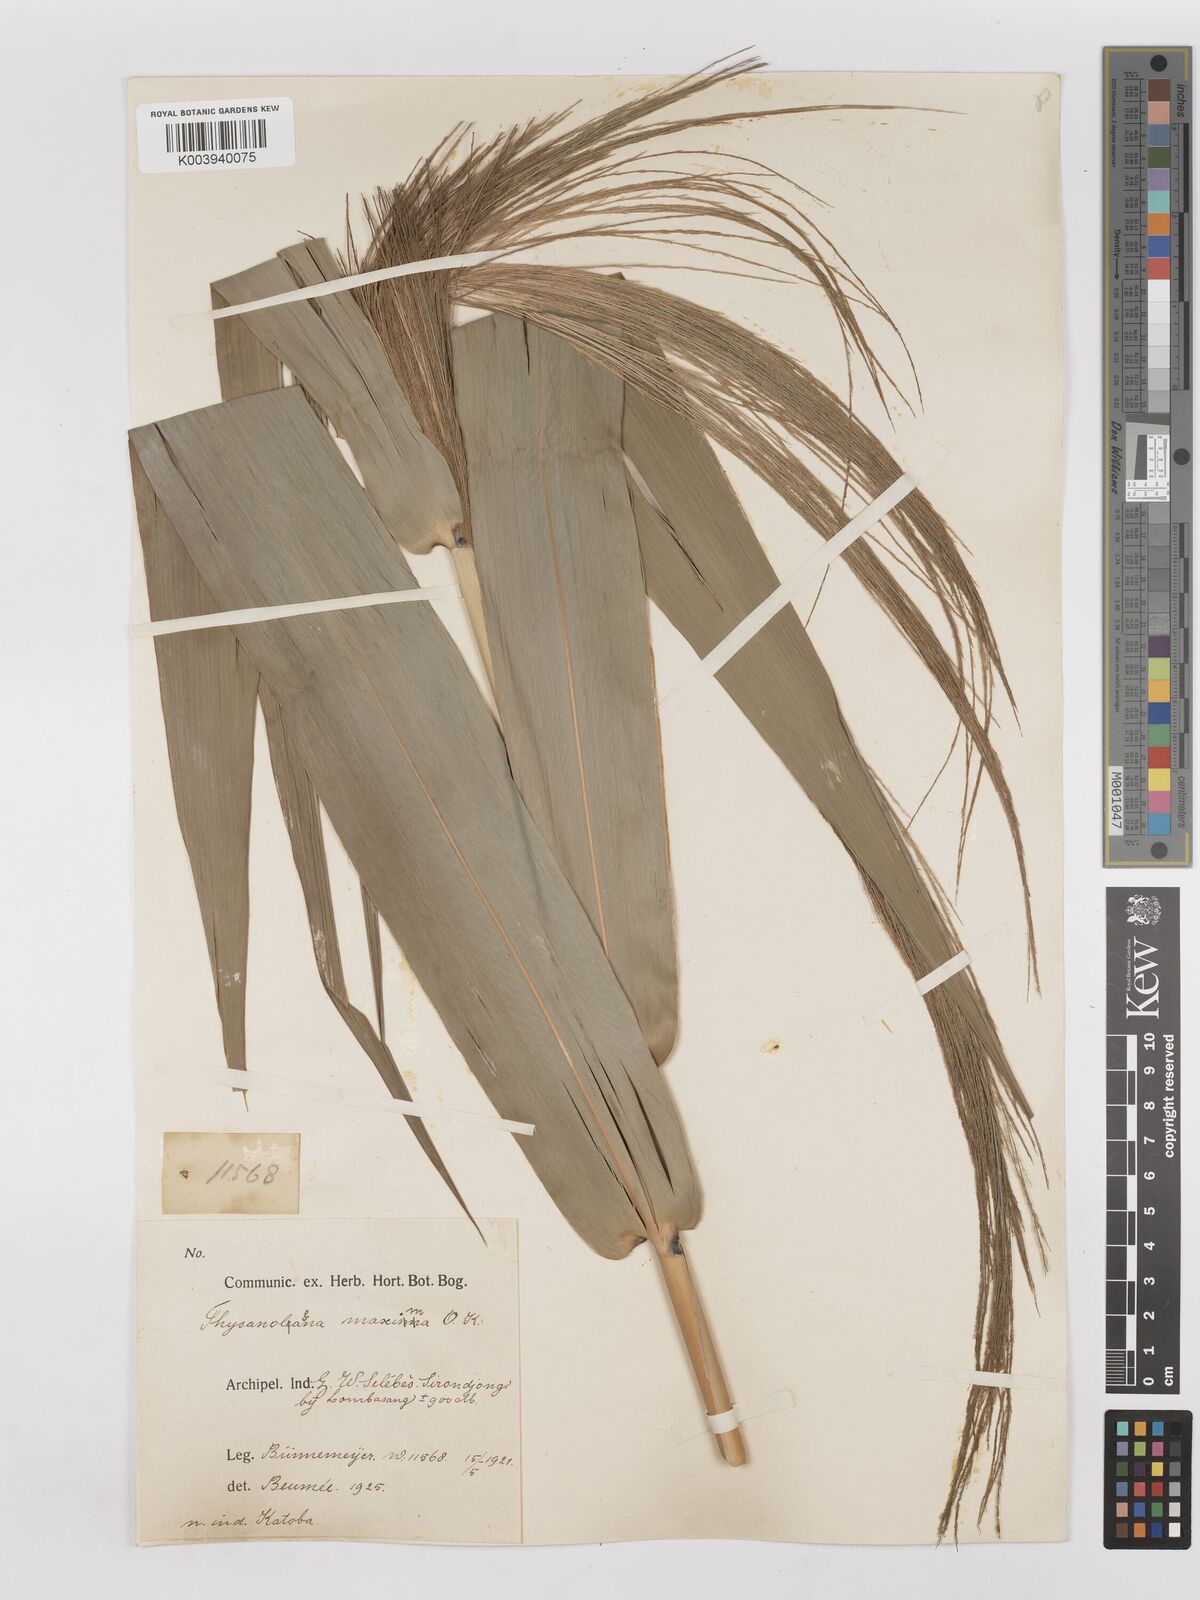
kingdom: Plantae
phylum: Tracheophyta
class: Liliopsida
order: Poales
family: Poaceae
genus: Thysanolaena
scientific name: Thysanolaena latifolia
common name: Tiger grass
